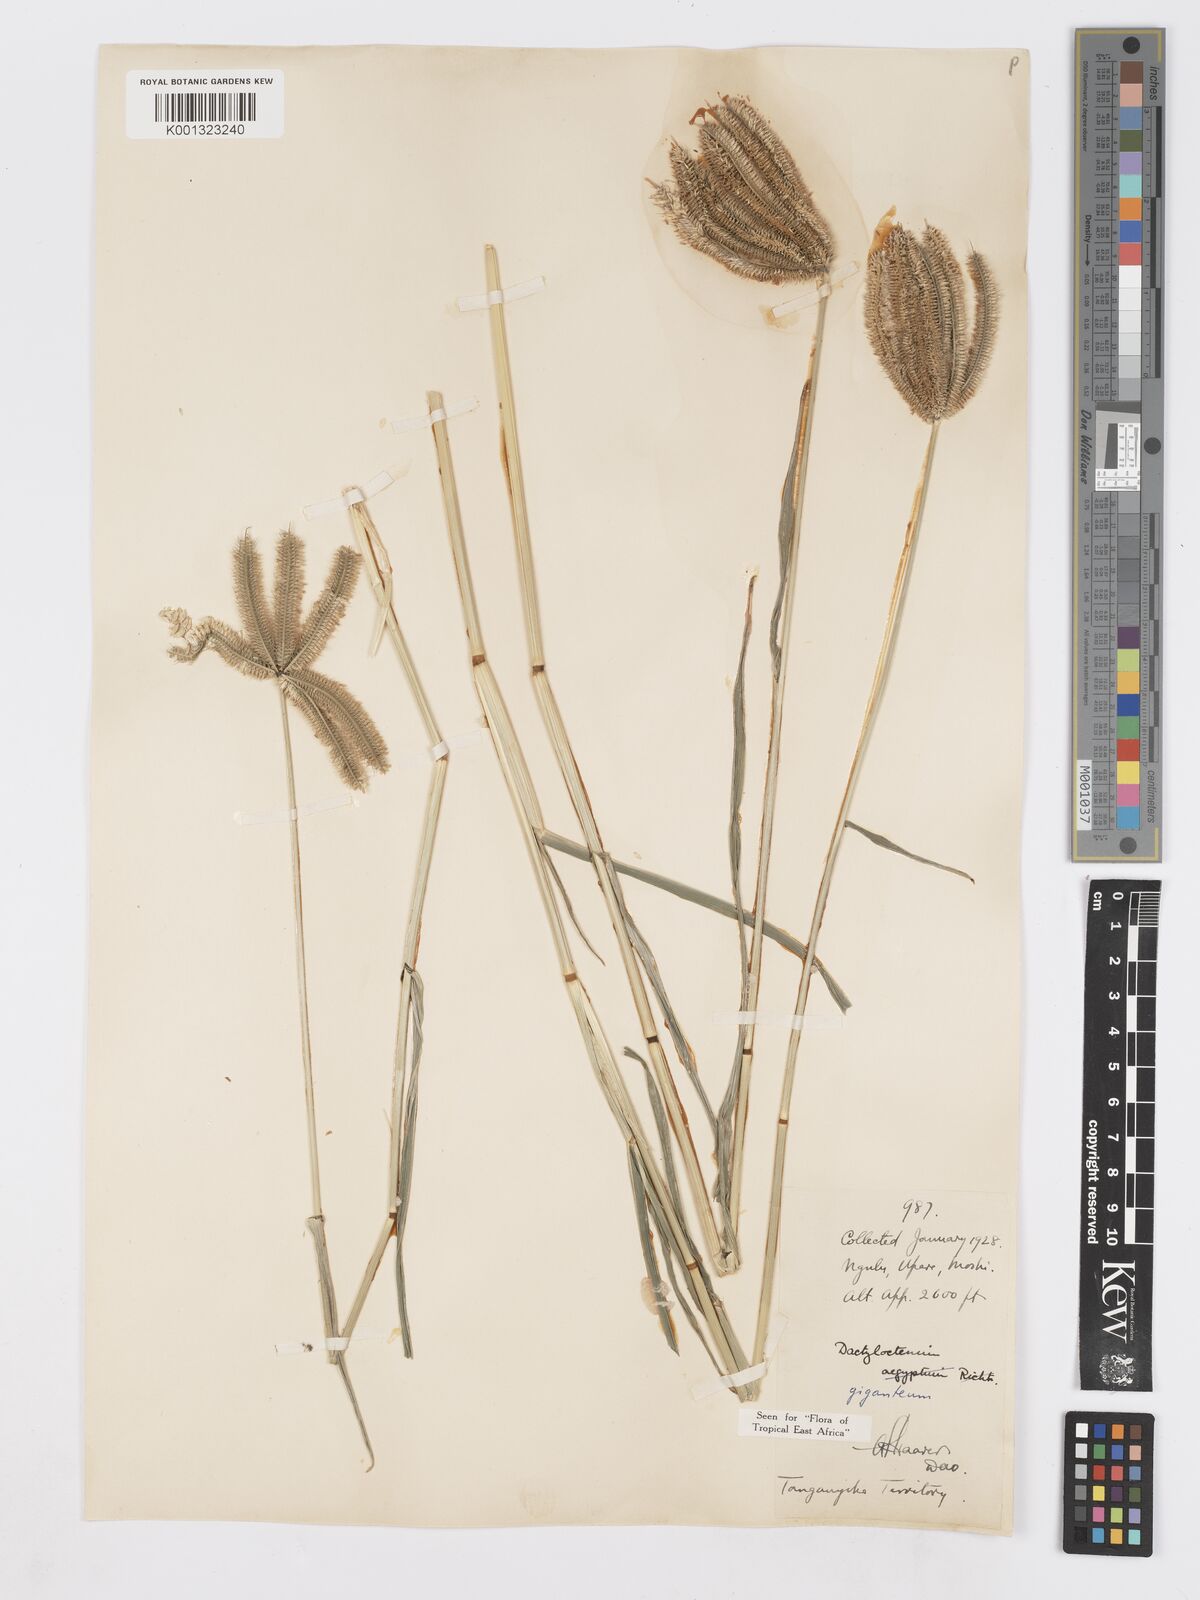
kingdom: Plantae
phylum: Tracheophyta
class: Liliopsida
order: Poales
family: Poaceae
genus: Dactyloctenium
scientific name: Dactyloctenium giganteum
